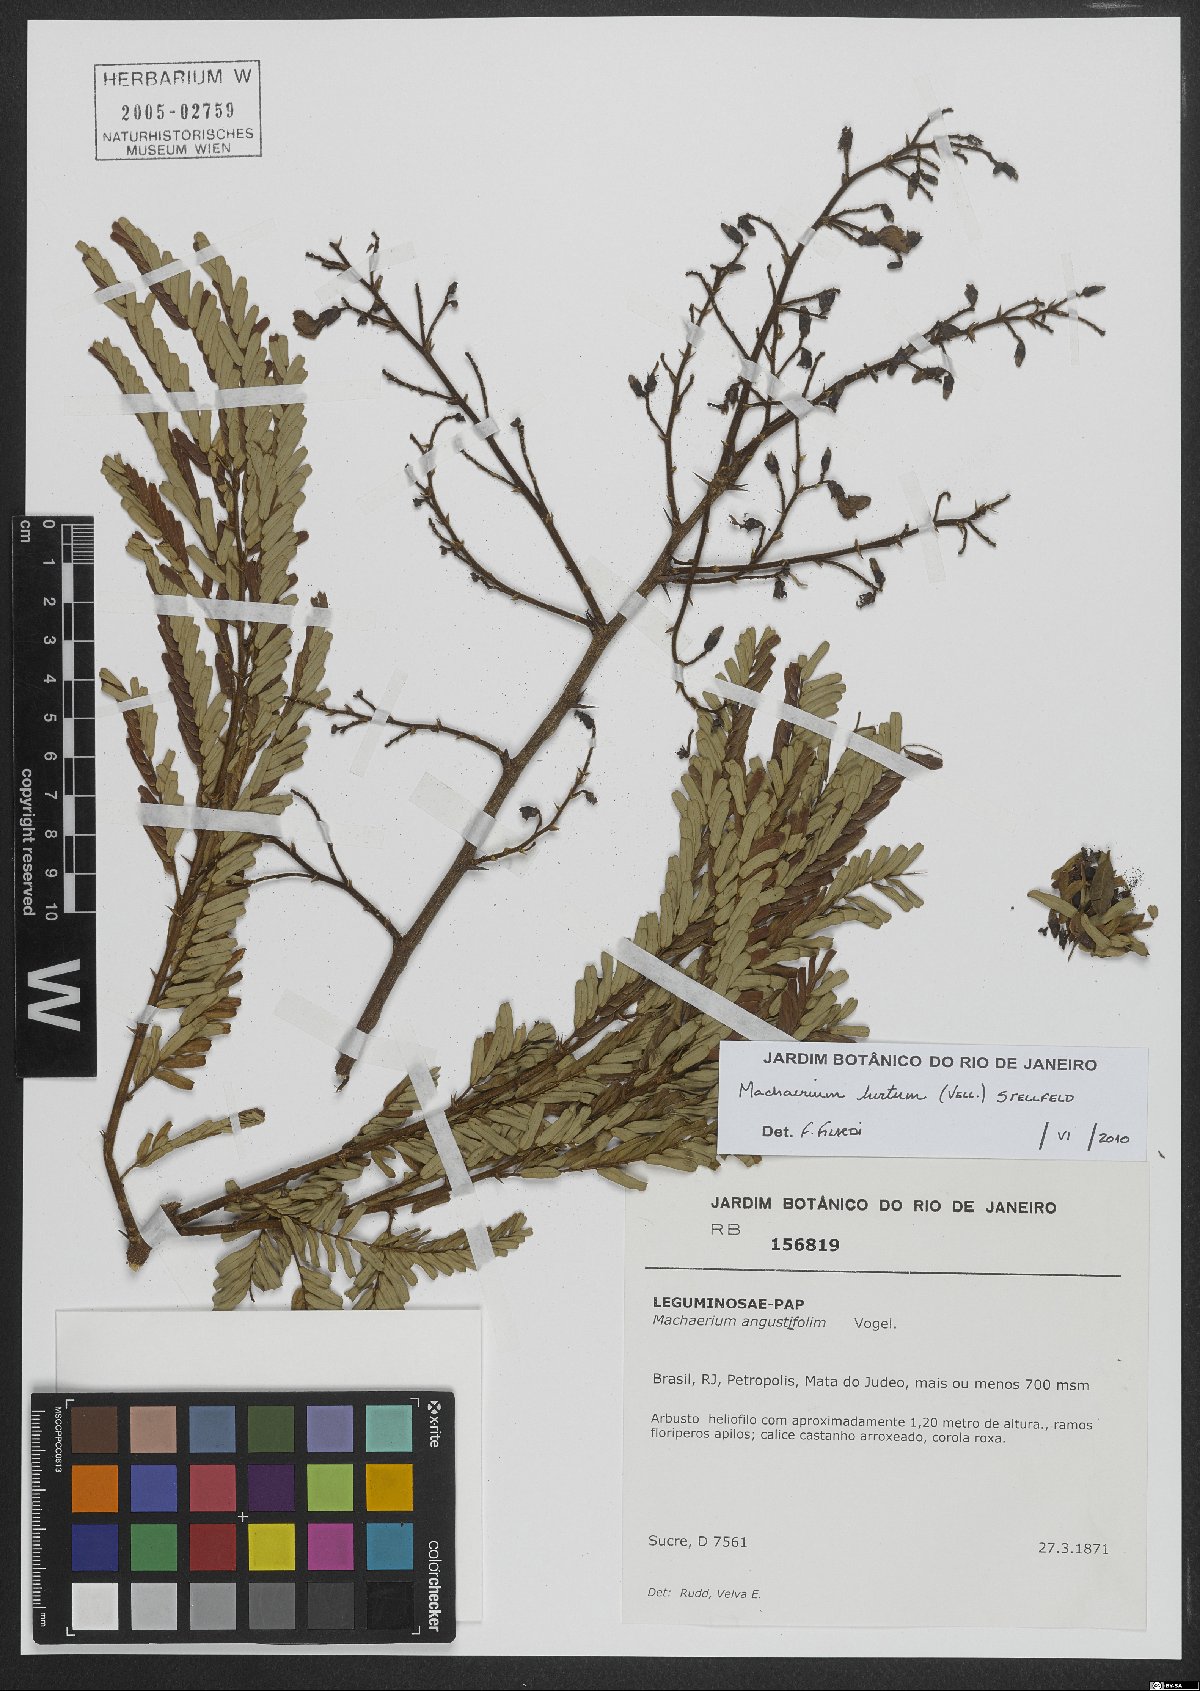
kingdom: Plantae
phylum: Tracheophyta
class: Magnoliopsida
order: Fabales
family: Fabaceae
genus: Machaerium
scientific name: Machaerium hirtum
